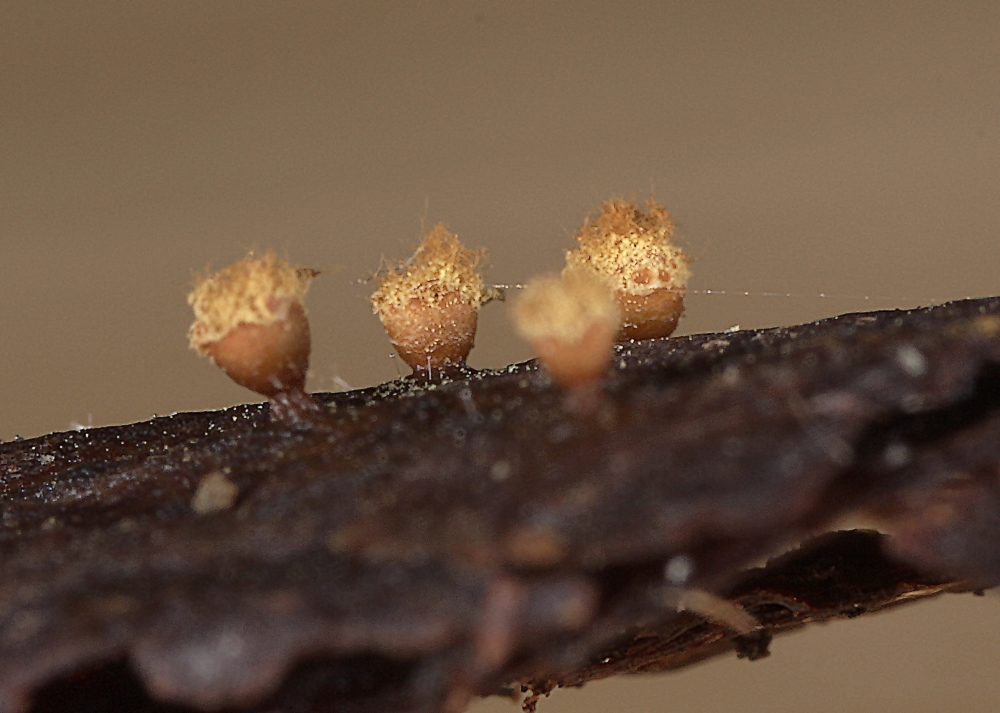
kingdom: Protozoa
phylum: Mycetozoa
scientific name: Mycetozoa
